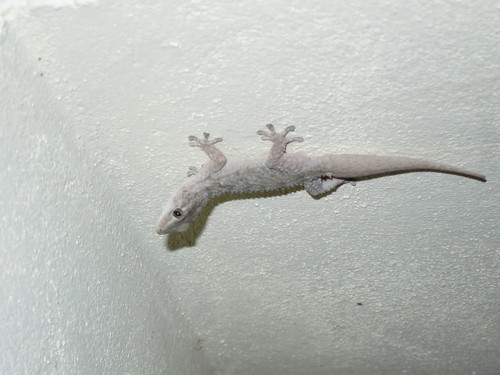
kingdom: Animalia
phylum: Chordata
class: Squamata
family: Phyllodactylidae
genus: Tarentola
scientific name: Tarentola mauritanica
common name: Moorish gecko
